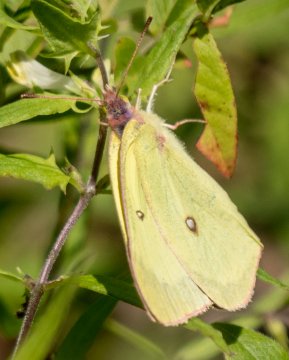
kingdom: Animalia
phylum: Arthropoda
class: Insecta
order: Lepidoptera
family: Pieridae
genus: Colias
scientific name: Colias interior
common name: Pink-edged Sulphur
